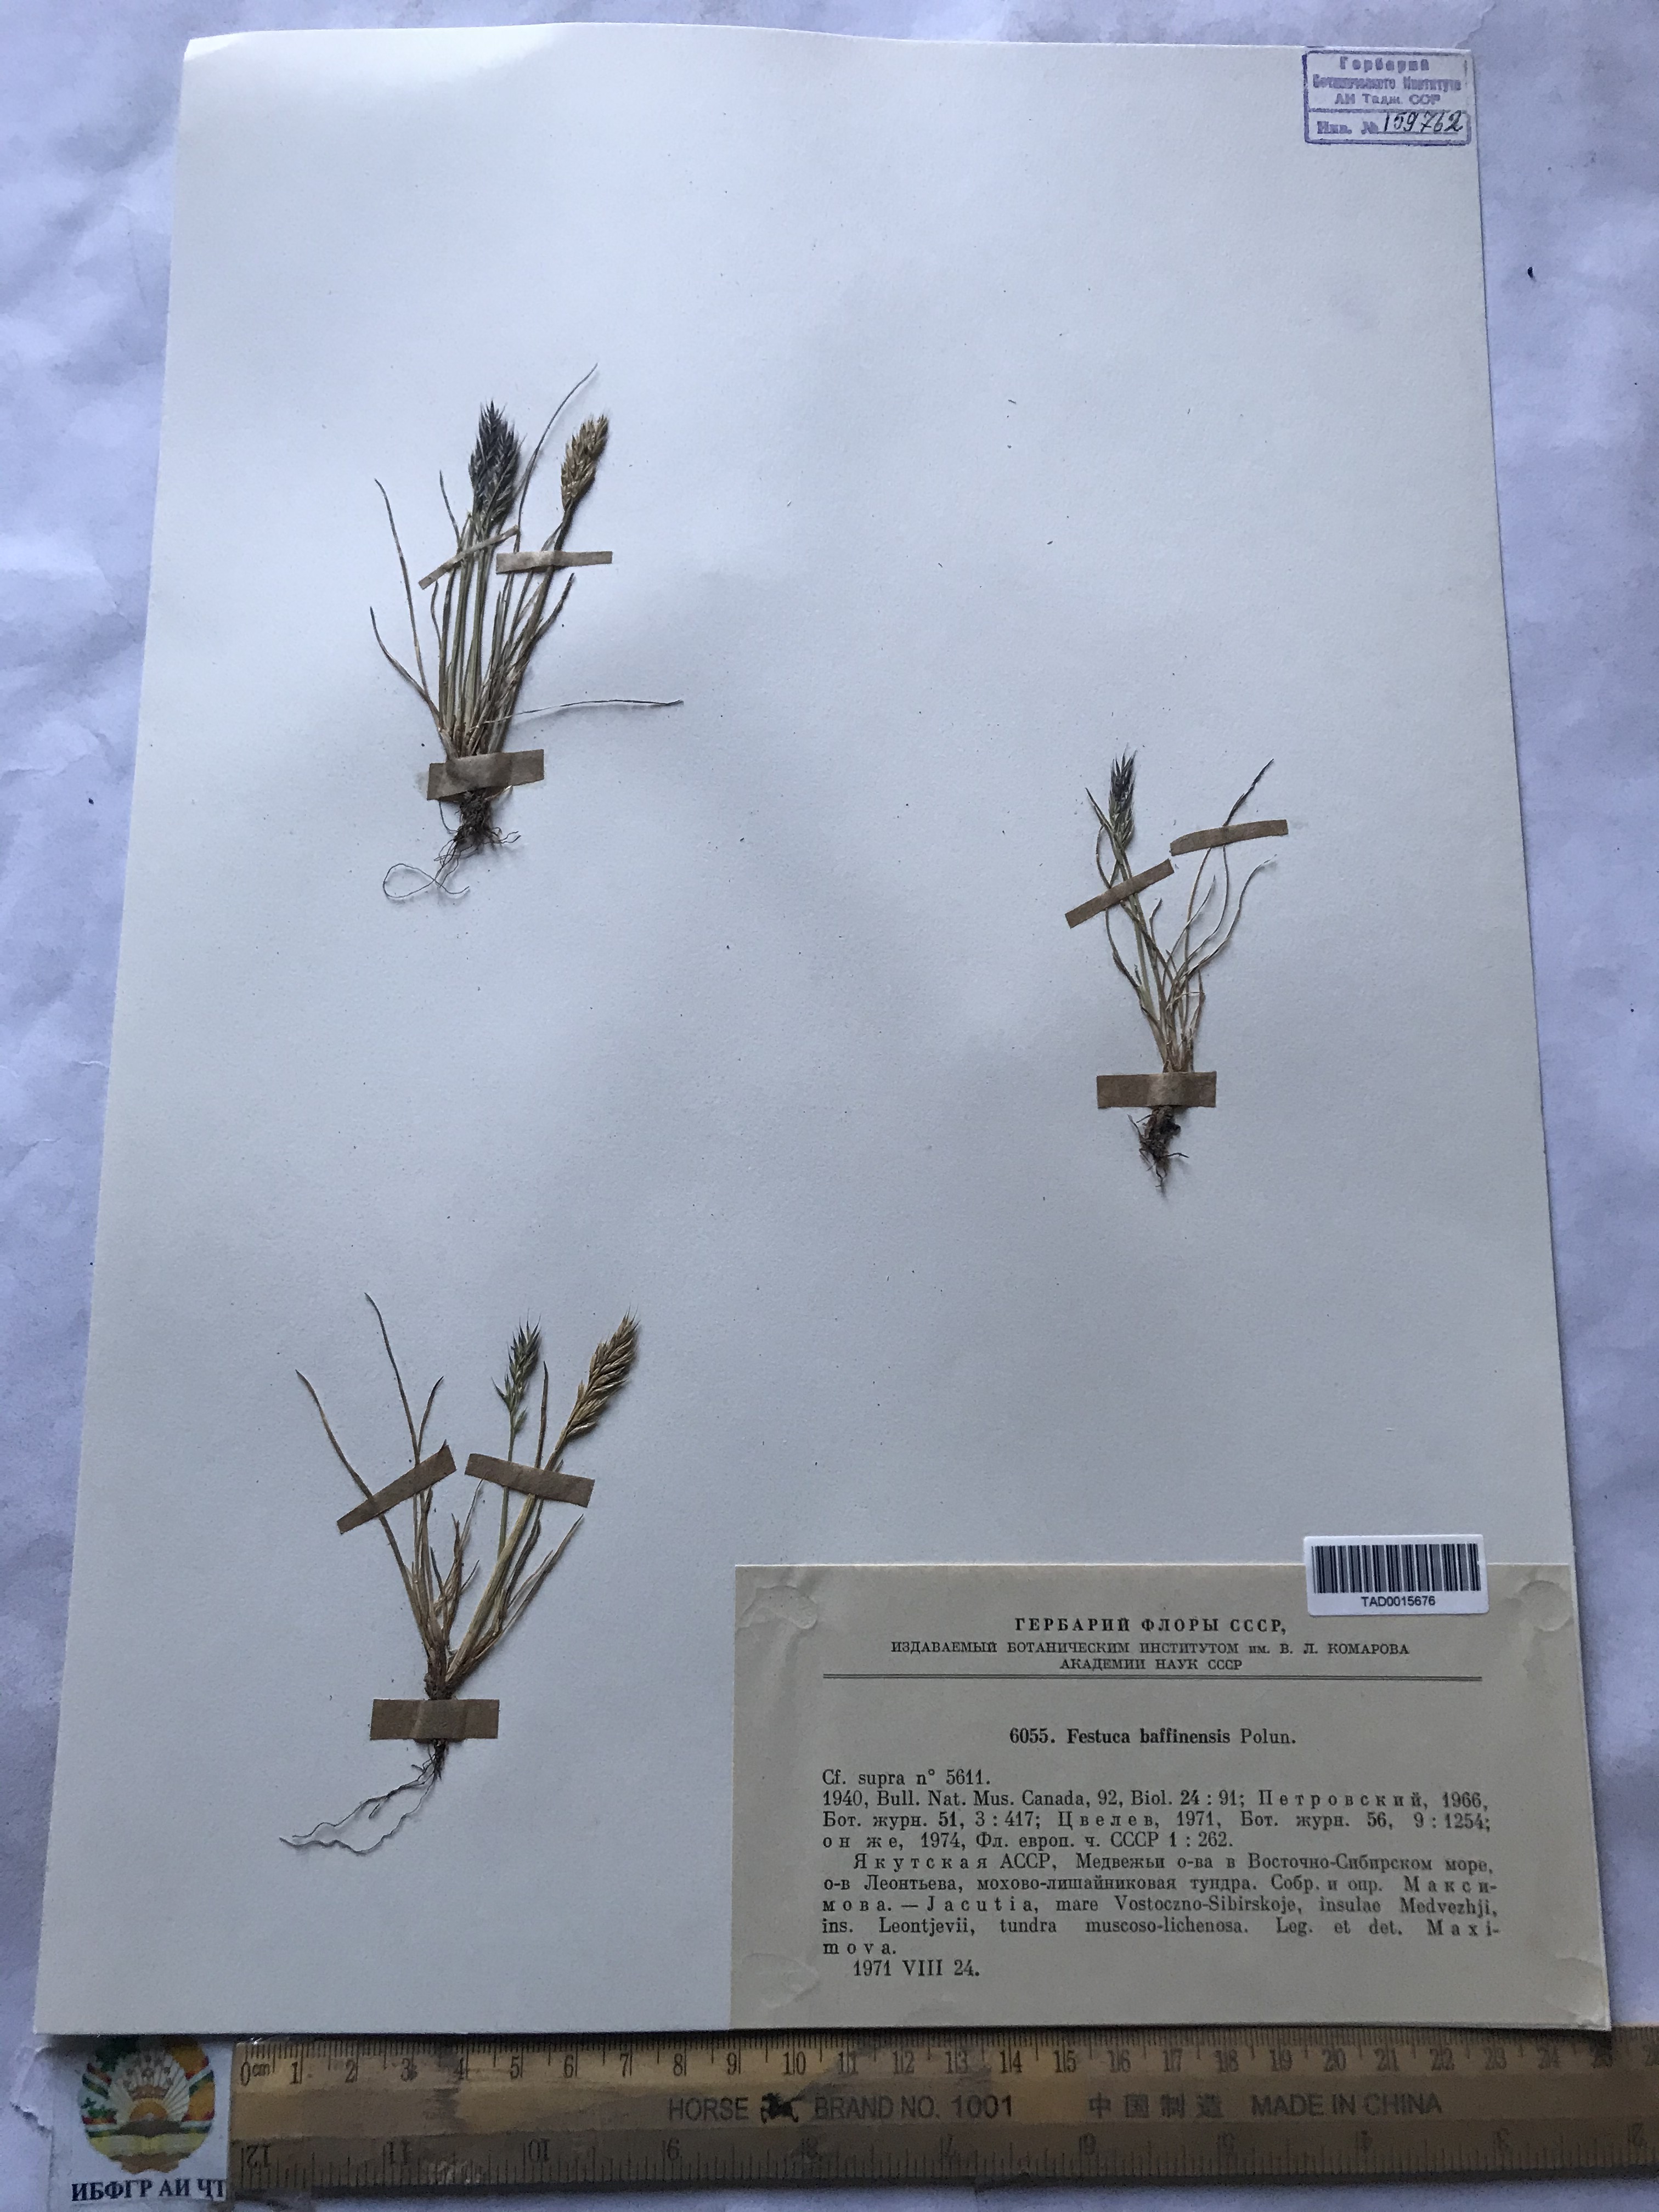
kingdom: Plantae
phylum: Tracheophyta
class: Liliopsida
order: Poales
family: Poaceae
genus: Festuca
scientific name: Festuca baffinensis
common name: Baffin island fescue
